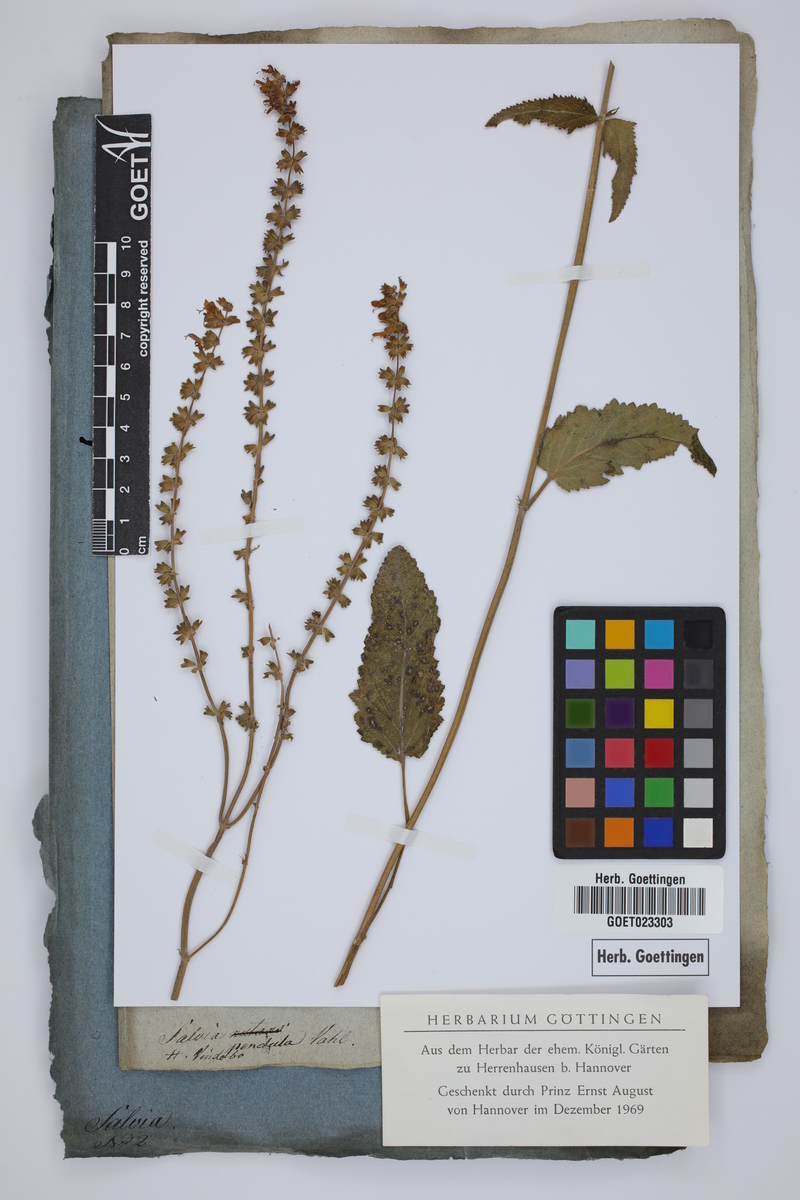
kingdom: Plantae
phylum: Tracheophyta
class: Magnoliopsida
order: Lamiales
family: Lamiaceae
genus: Salvia
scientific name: Salvia pendula
